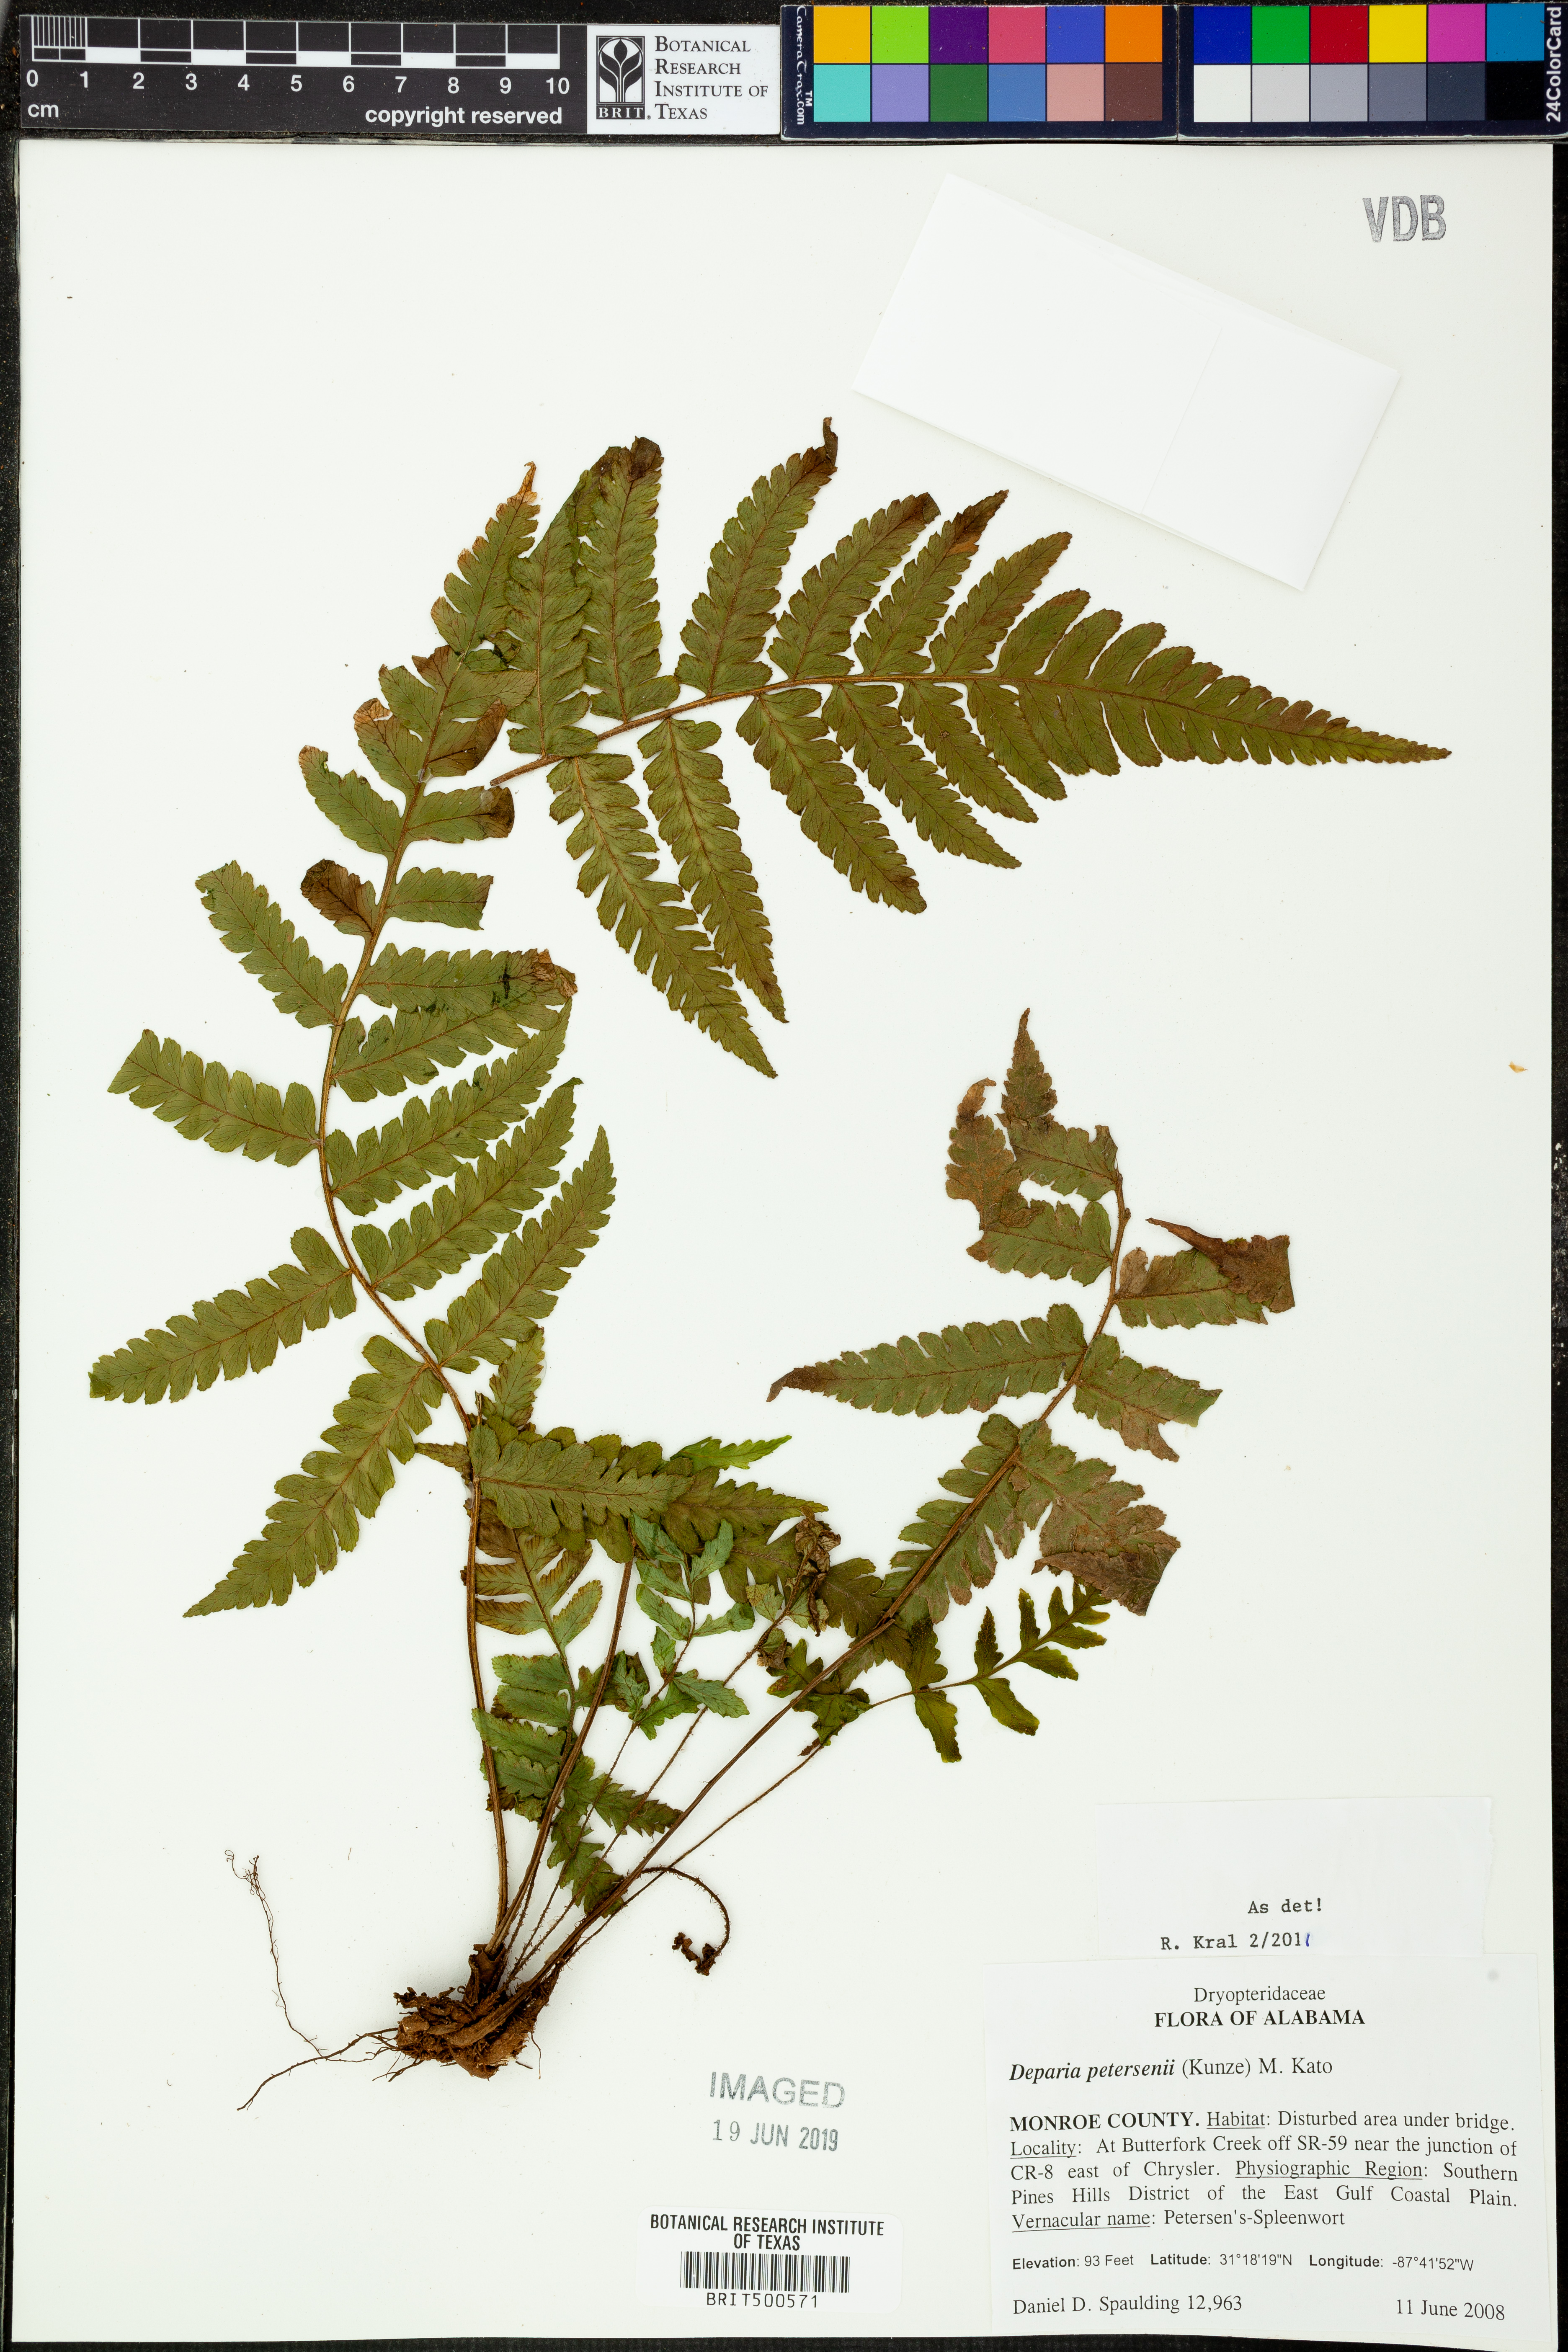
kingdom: Plantae
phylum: Tracheophyta
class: Polypodiopsida
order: Polypodiales
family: Athyriaceae
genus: Deparia
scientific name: Deparia petersenii
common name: Japanese false spleenwort
